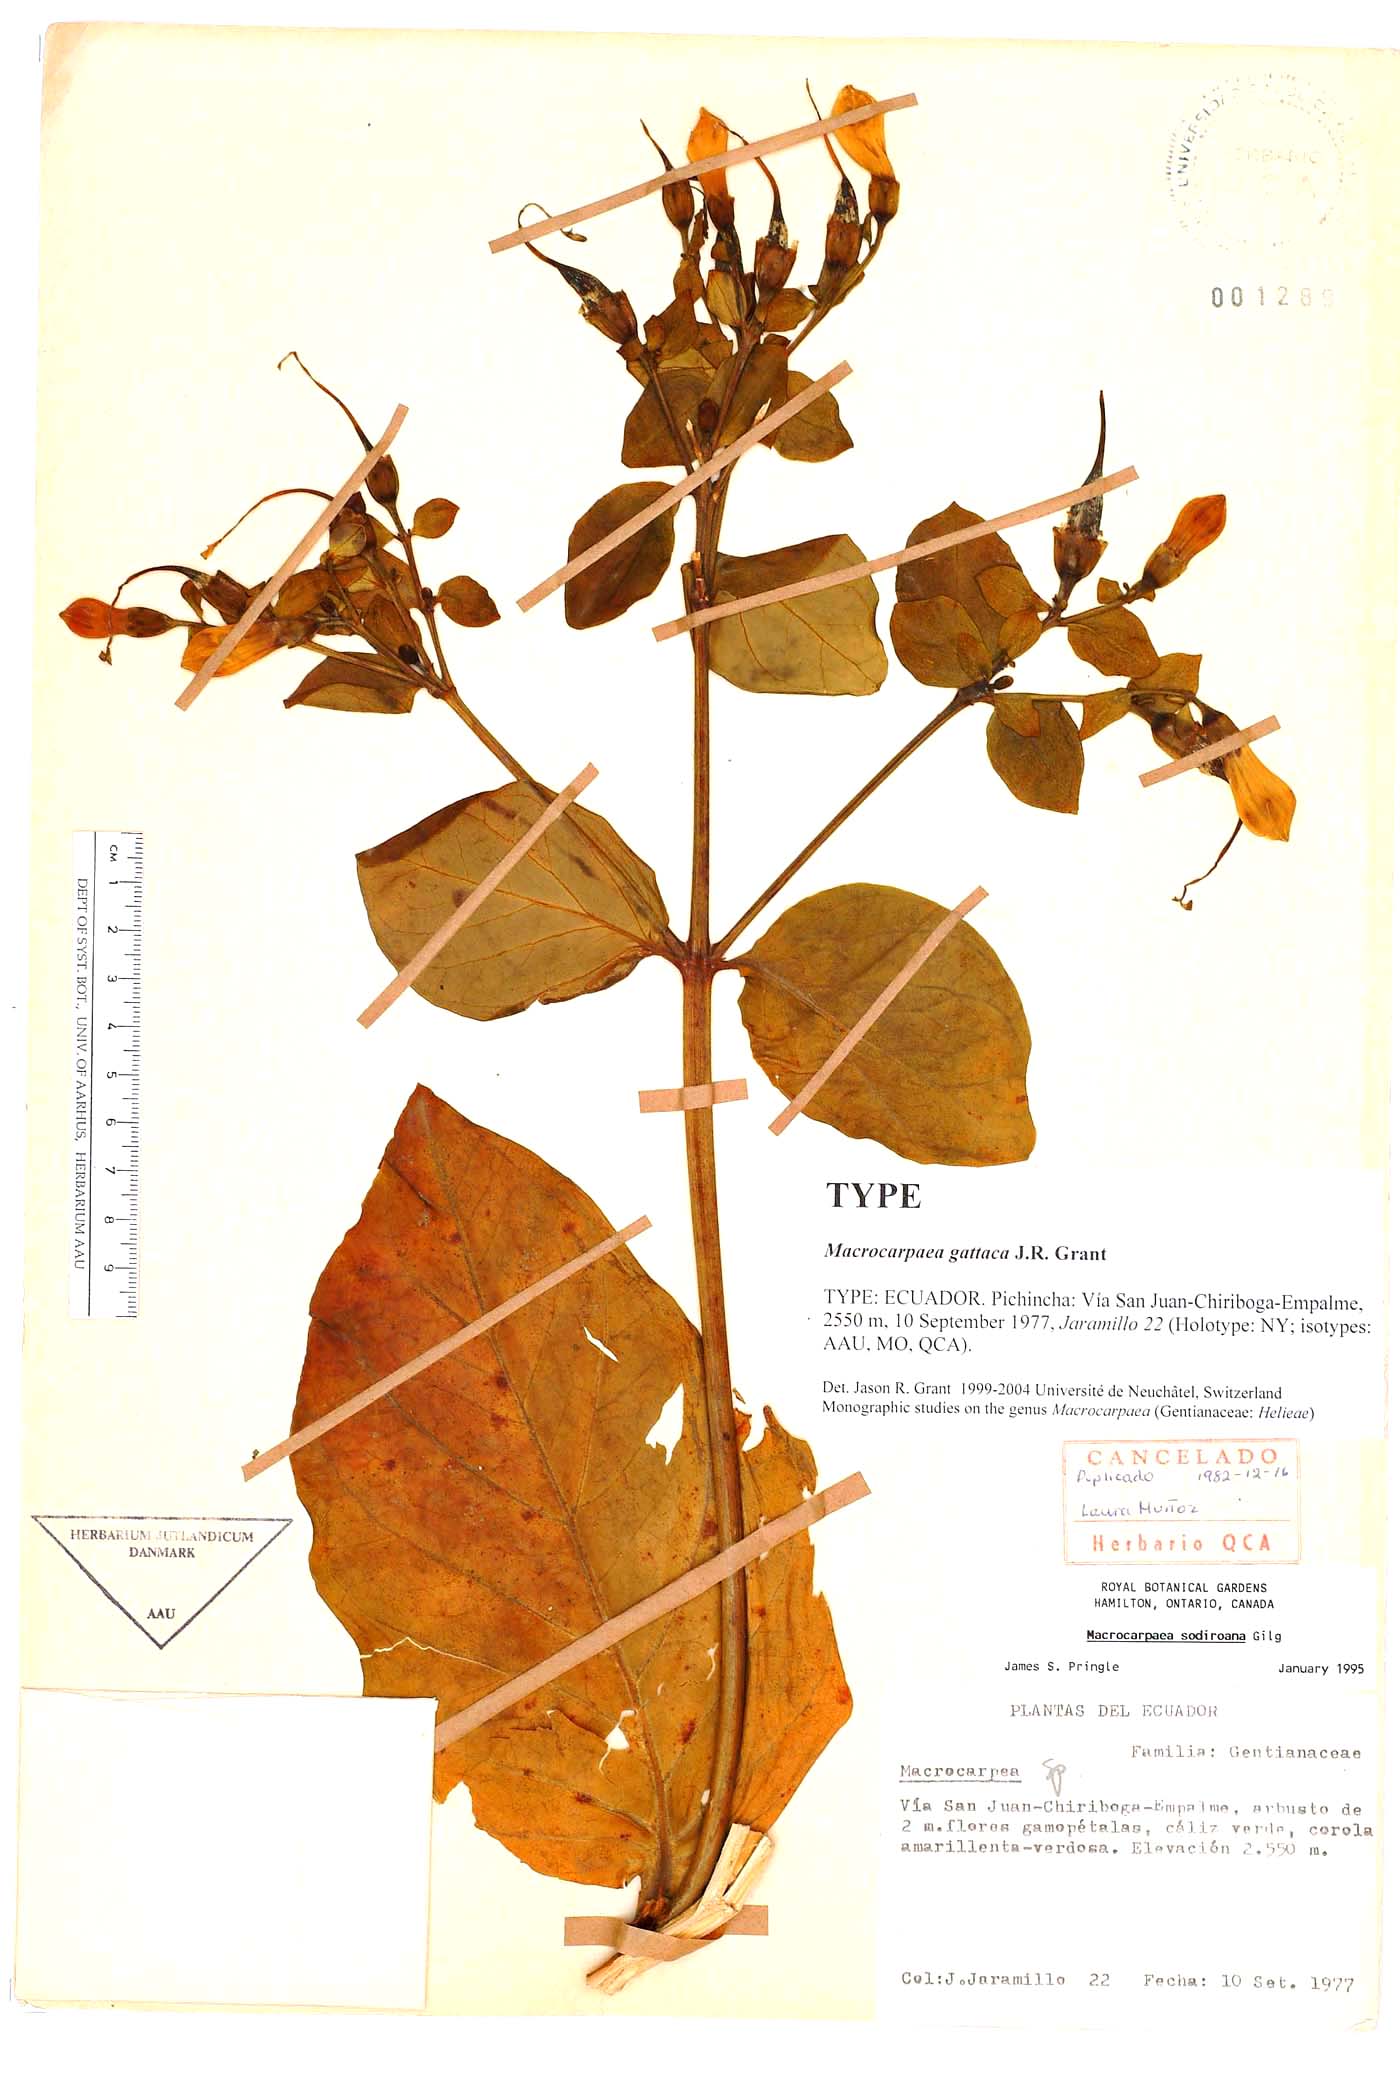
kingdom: Plantae
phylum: Tracheophyta
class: Magnoliopsida
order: Gentianales
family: Gentianaceae
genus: Macrocarpaea
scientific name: Macrocarpaea gattaca
